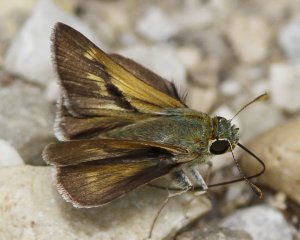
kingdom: Animalia
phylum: Arthropoda
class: Insecta
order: Lepidoptera
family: Hesperiidae
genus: Polites
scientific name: Polites
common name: Crossline Skipper
